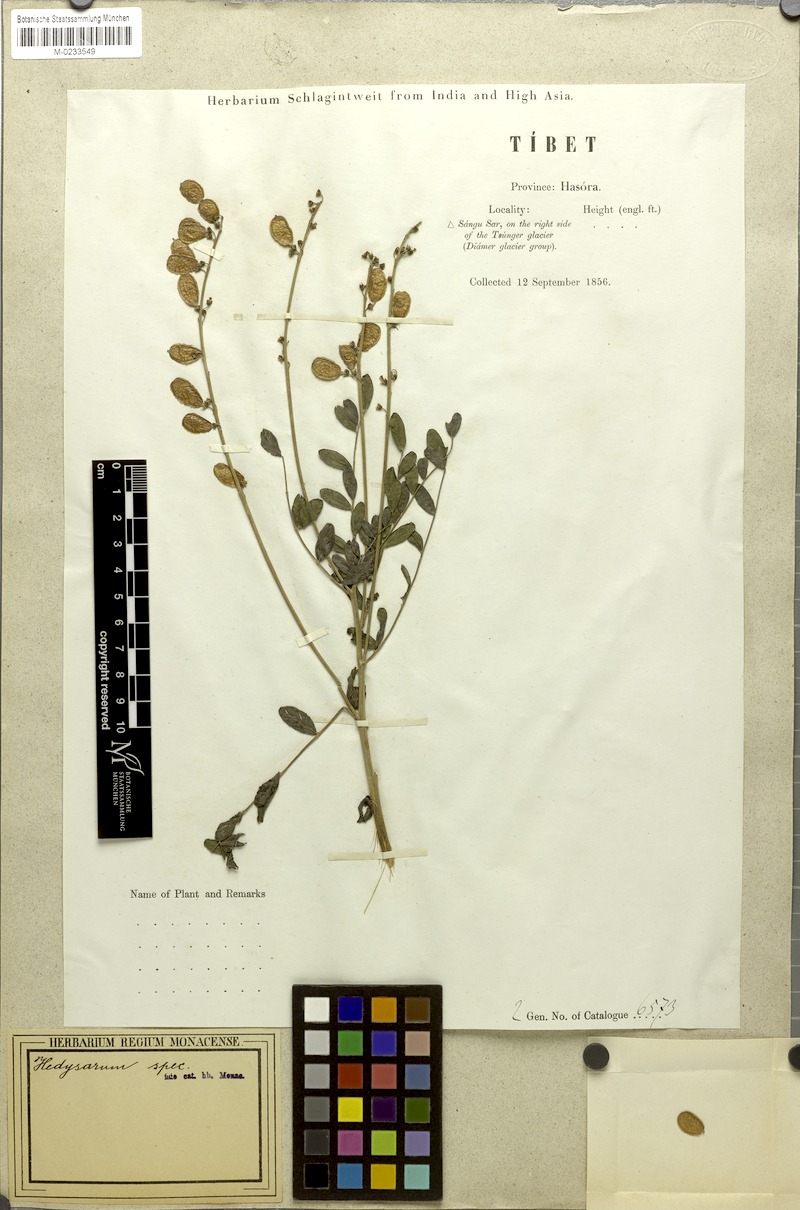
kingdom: Plantae
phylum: Tracheophyta
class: Magnoliopsida
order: Fabales
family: Fabaceae
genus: Hedysarum
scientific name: Hedysarum falconeri
